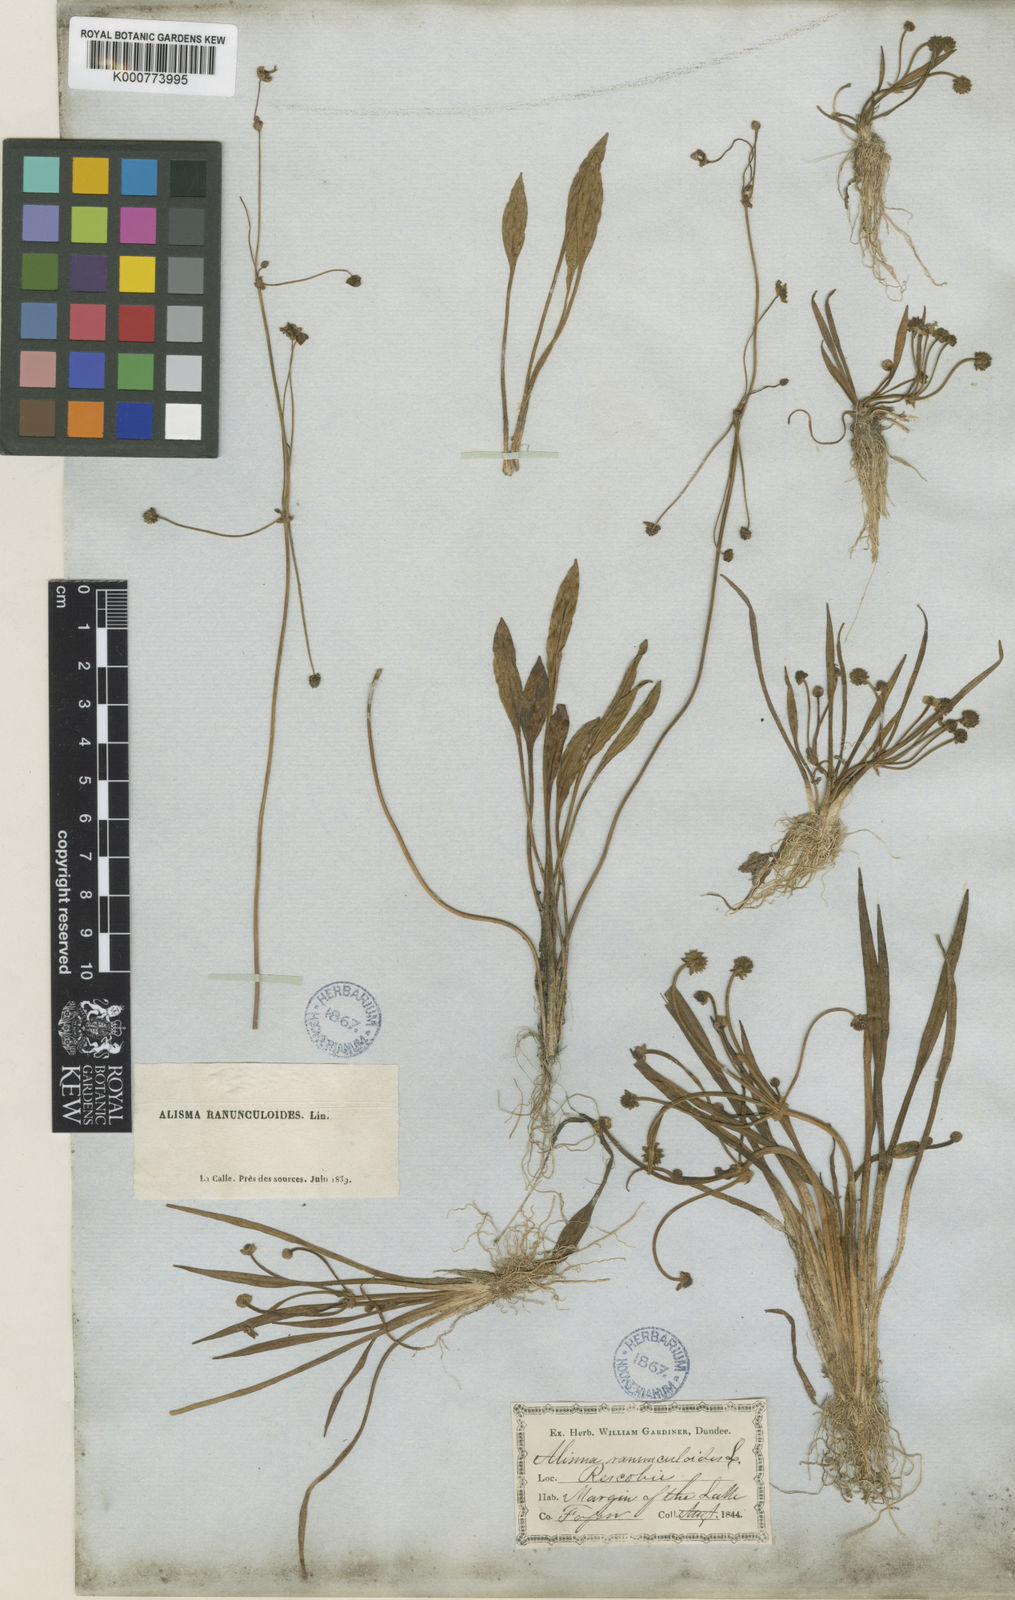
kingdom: Plantae
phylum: Tracheophyta
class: Liliopsida
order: Alismatales
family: Alismataceae
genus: Baldellia
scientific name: Baldellia ranunculoides
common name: Lesser water-plantain
